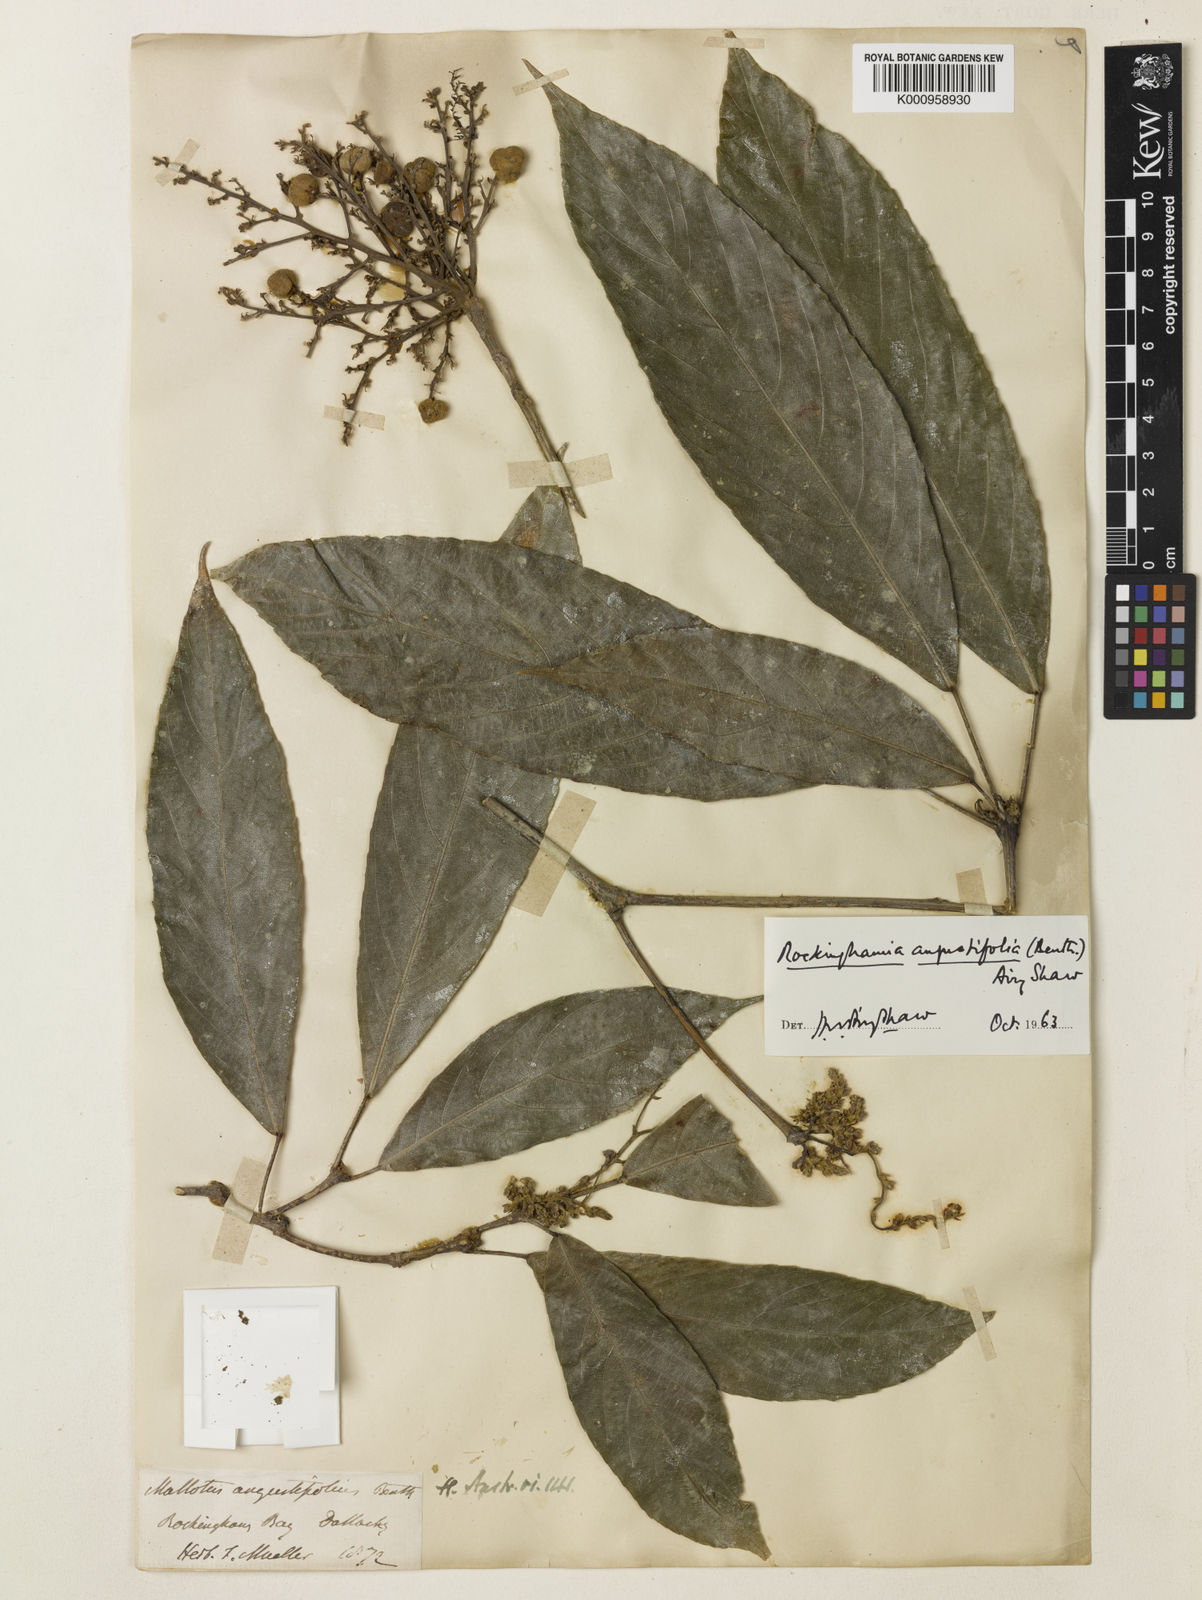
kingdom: Plantae
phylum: Tracheophyta
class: Magnoliopsida
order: Malpighiales
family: Euphorbiaceae
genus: Rockinghamia
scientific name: Rockinghamia angustifolia
